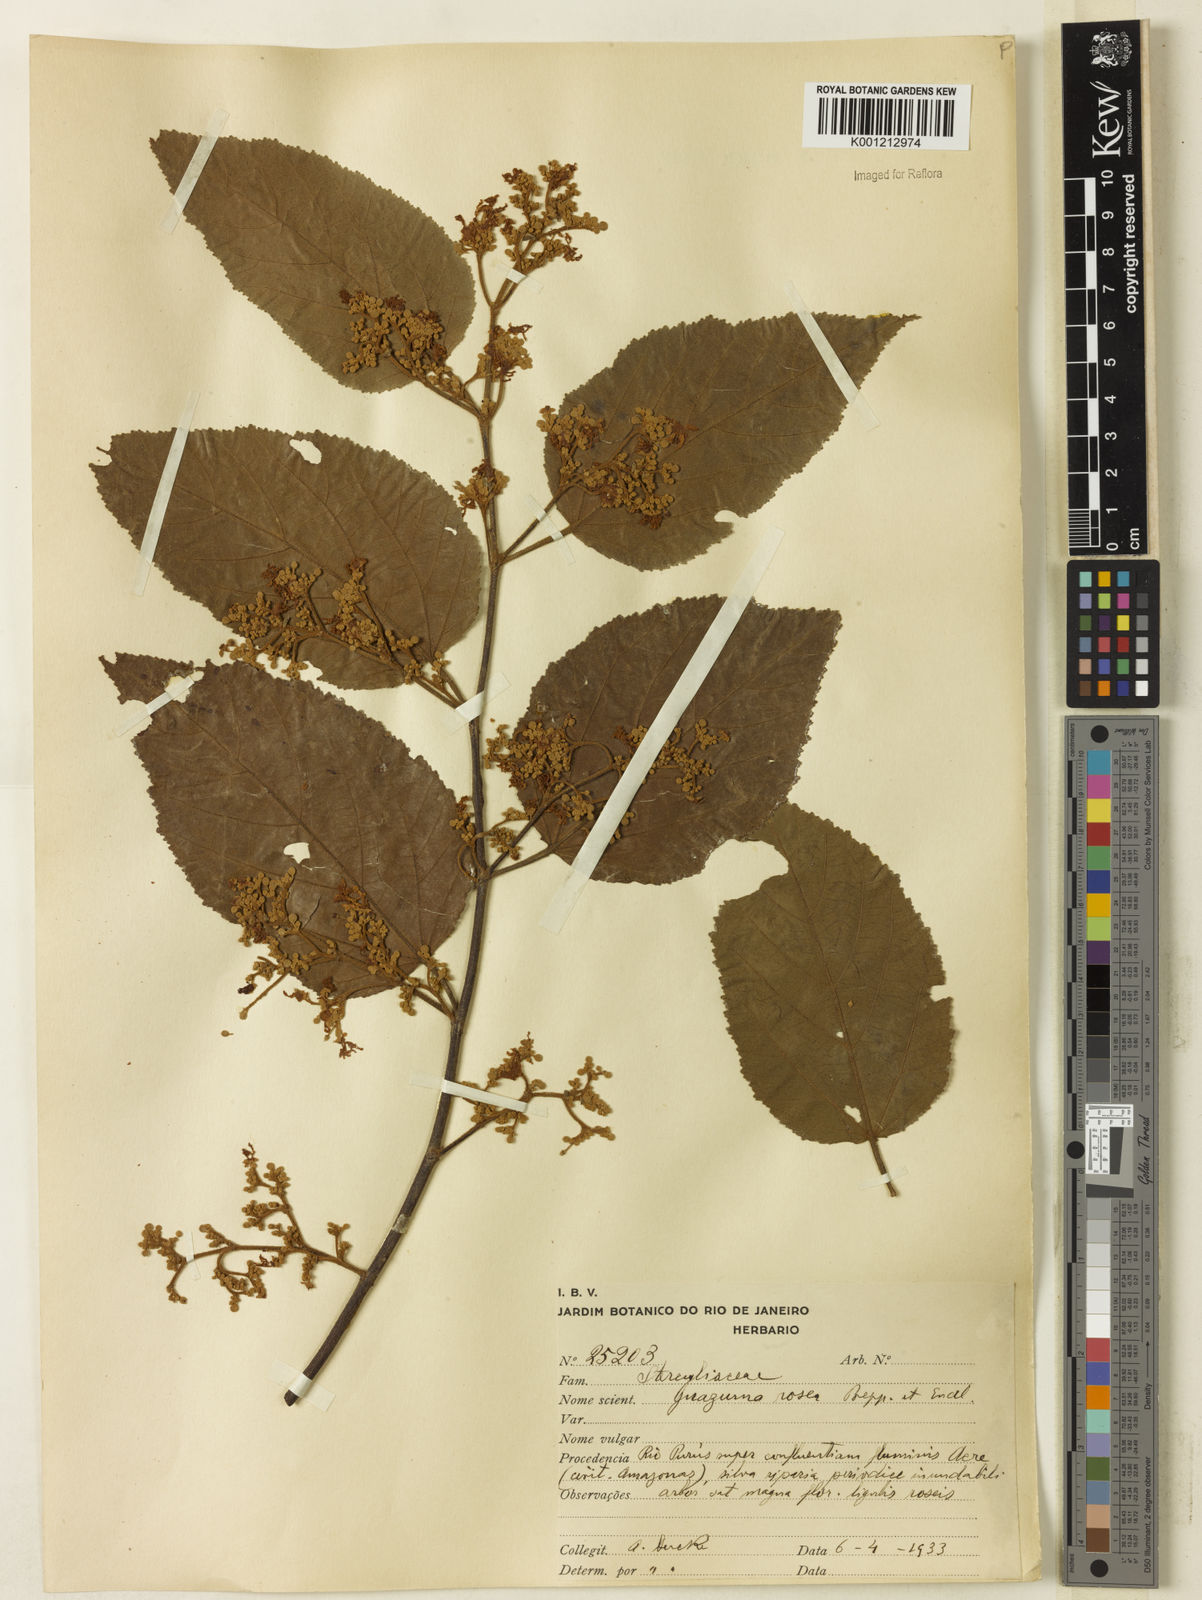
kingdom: Plantae
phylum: Tracheophyta
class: Magnoliopsida
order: Malvales
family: Malvaceae
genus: Guazuma
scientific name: Guazuma crinita
